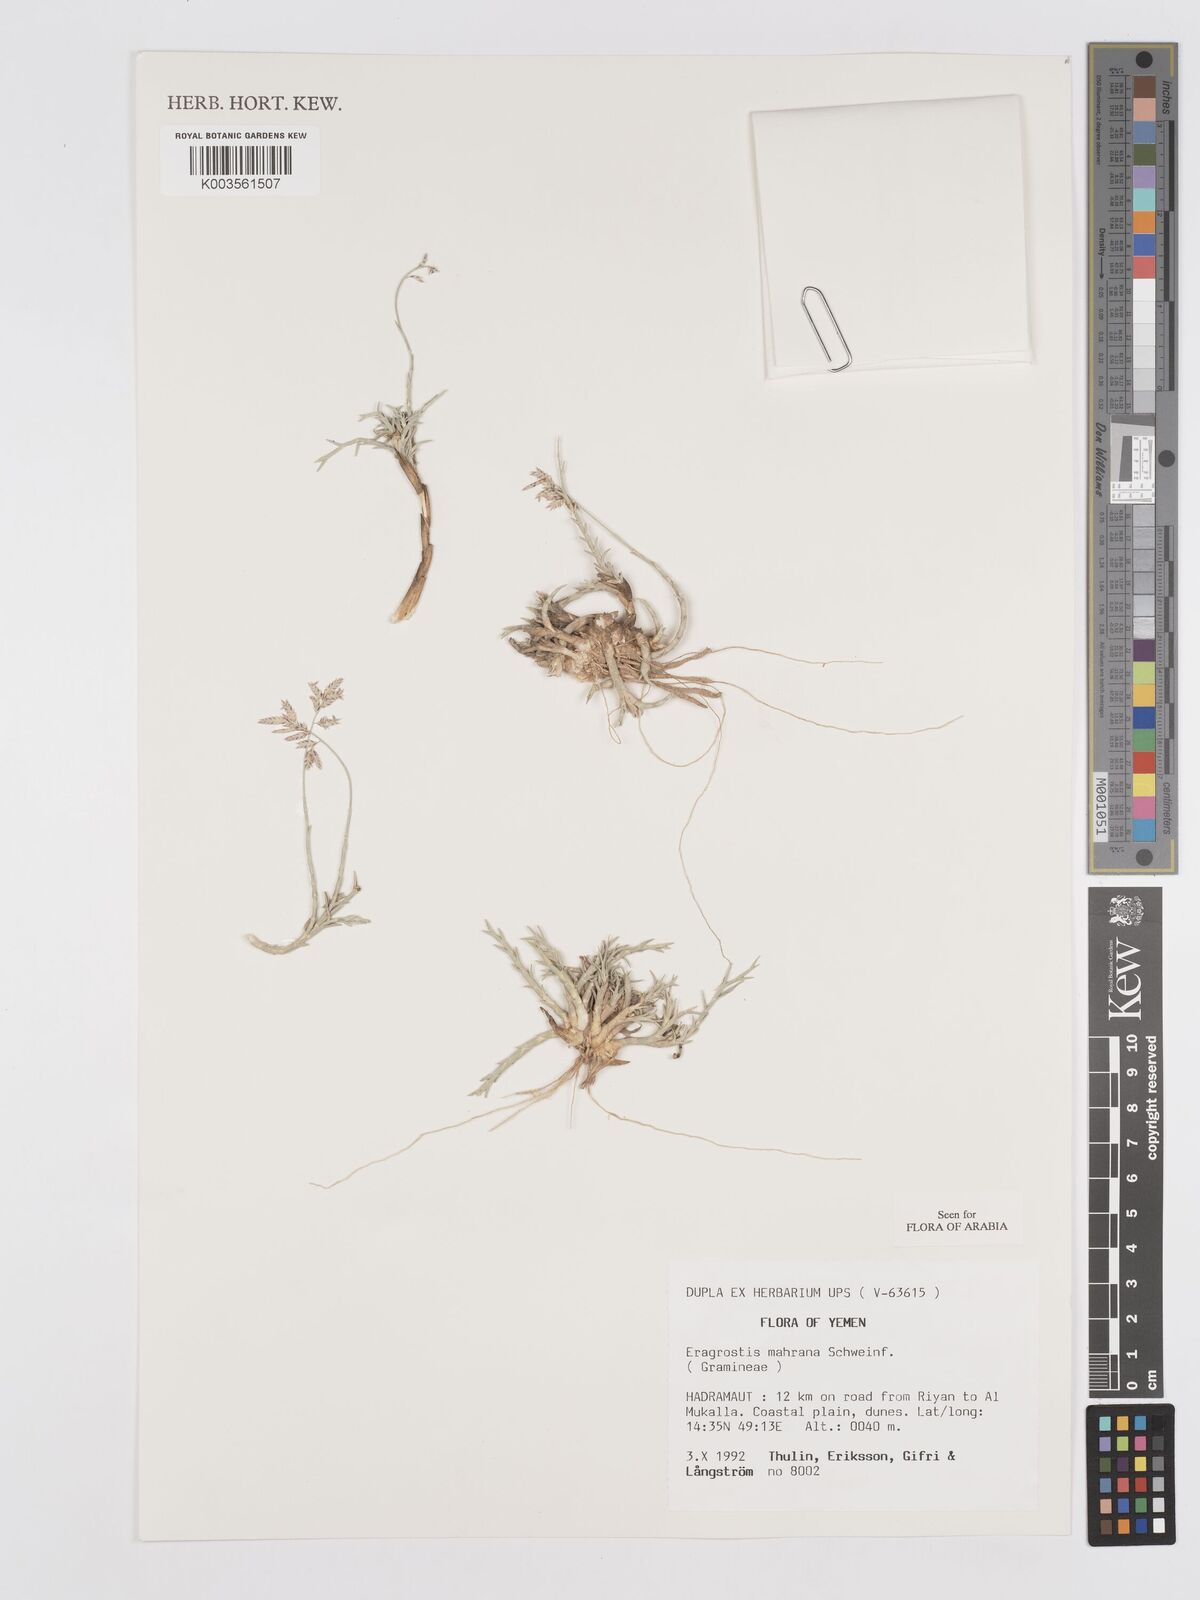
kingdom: Plantae
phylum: Tracheophyta
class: Liliopsida
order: Poales
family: Poaceae
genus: Eragrostis
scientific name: Eragrostis mahrana
